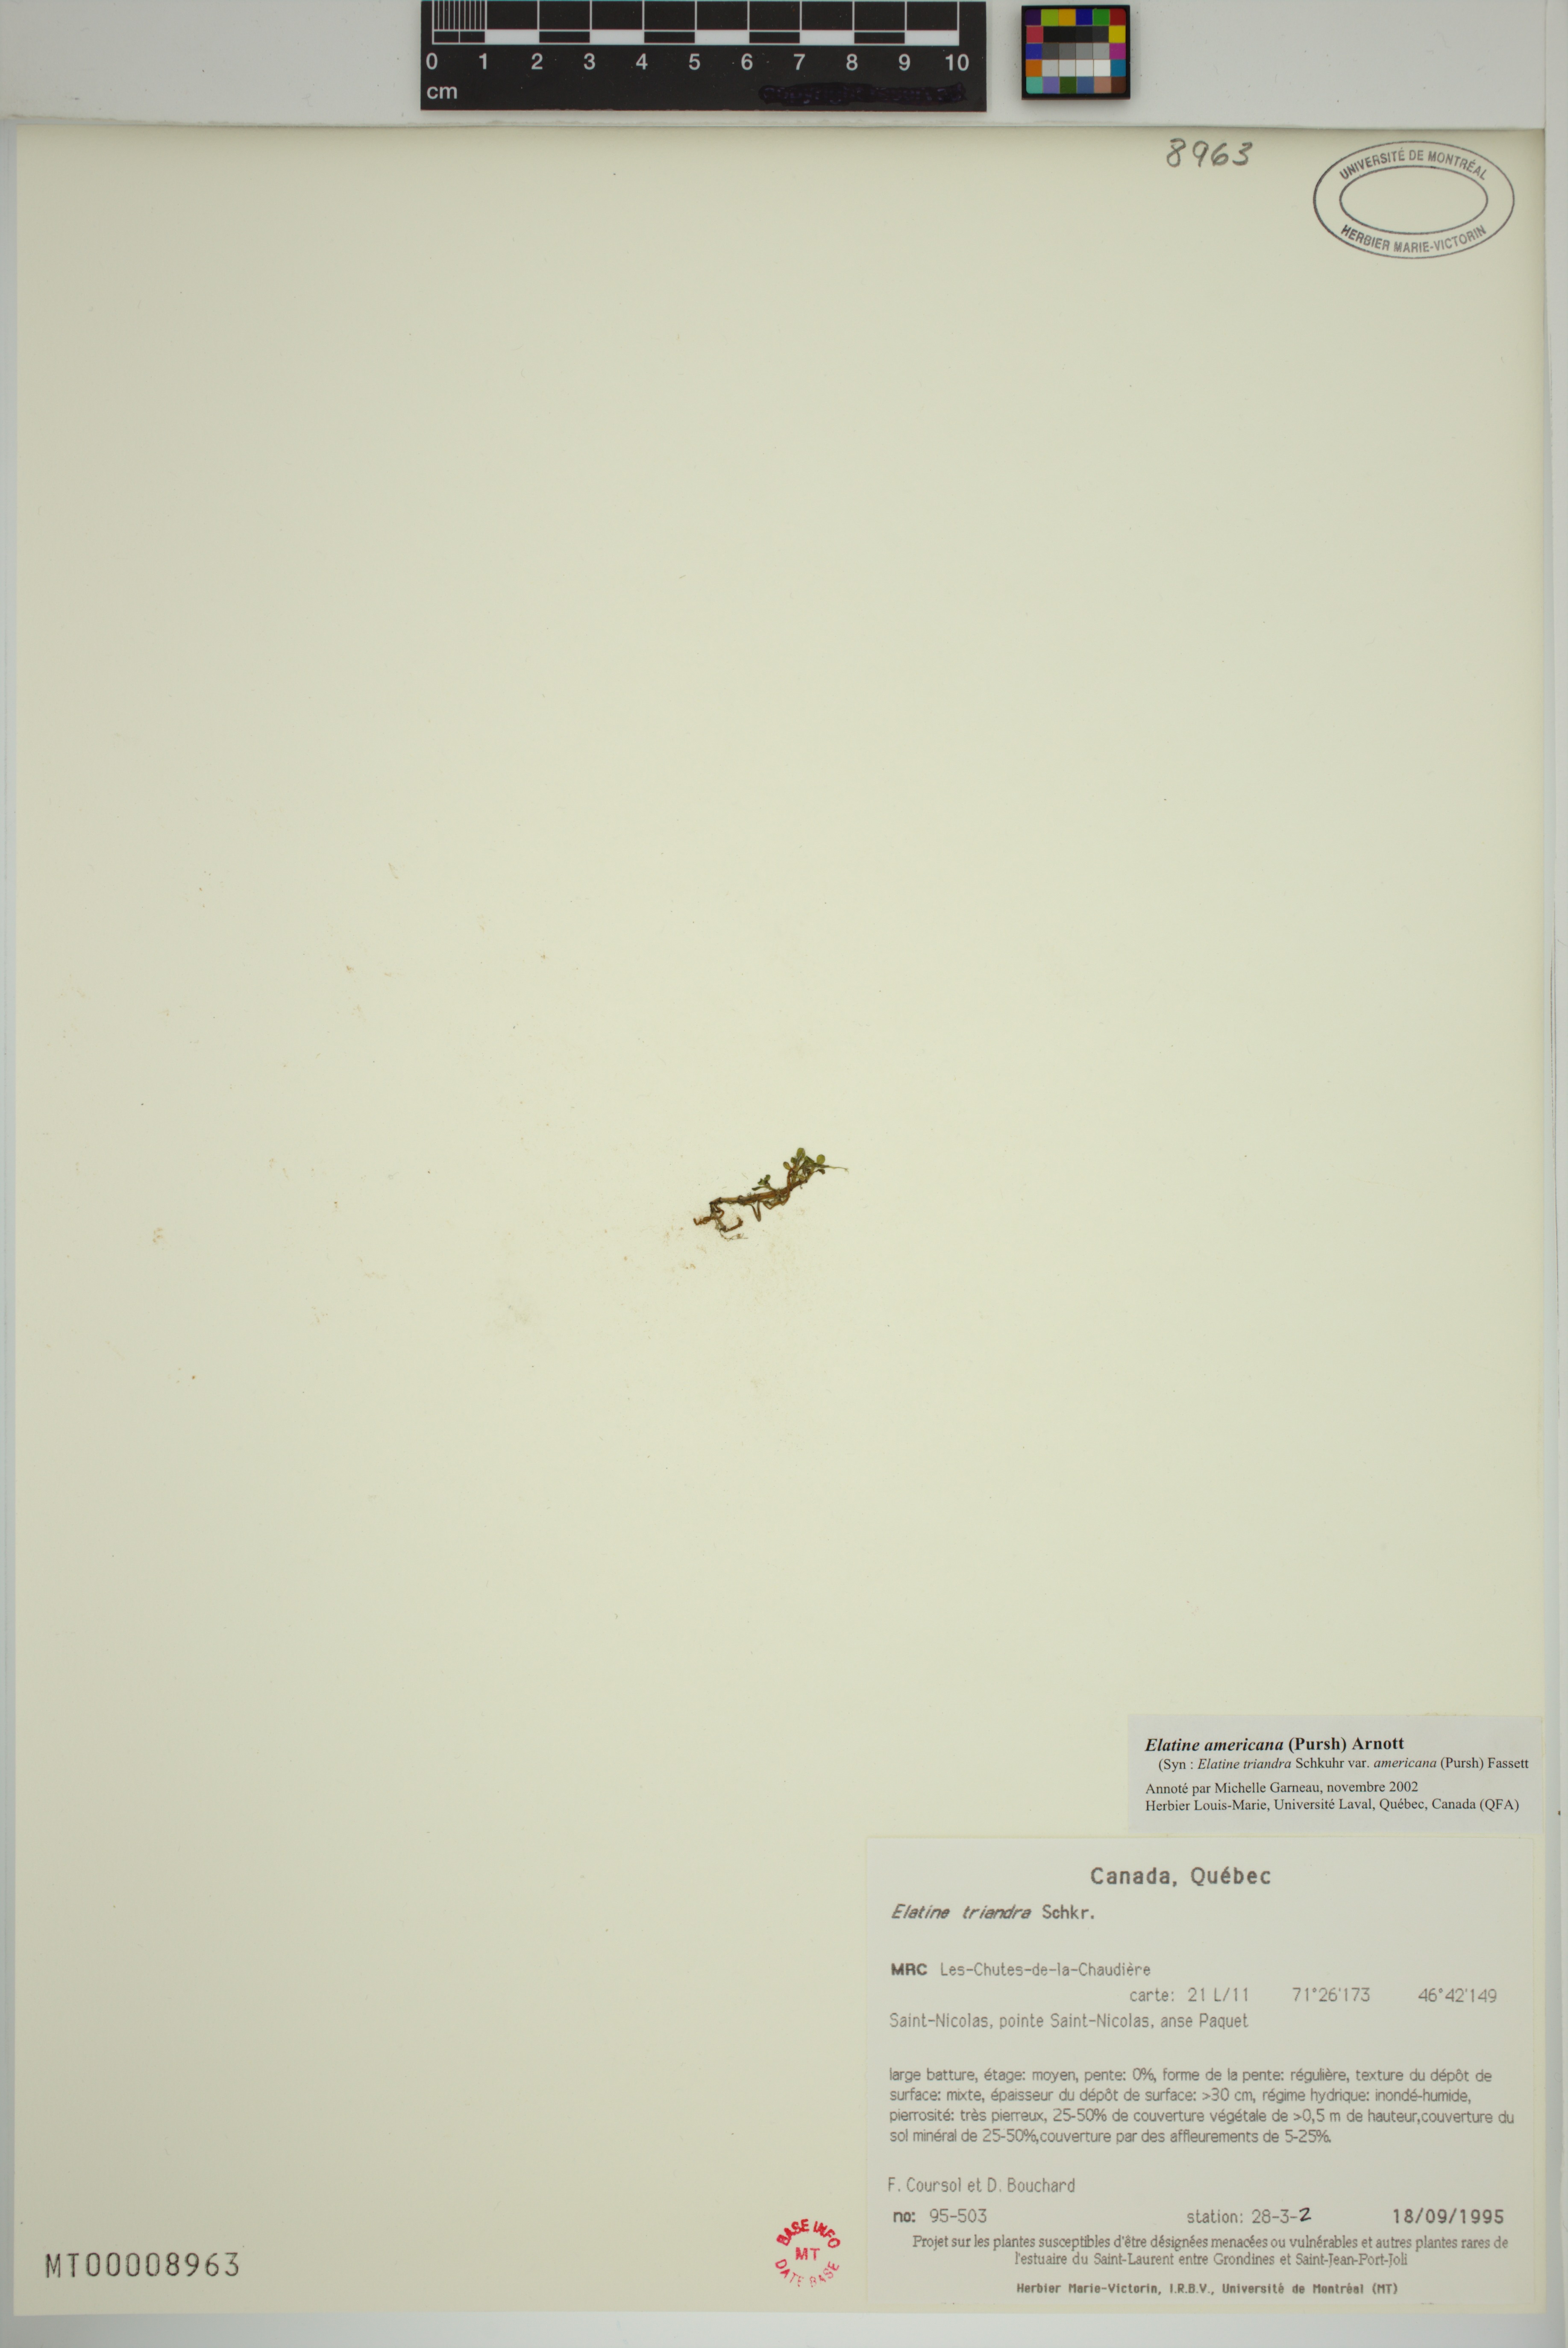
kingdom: Plantae
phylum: Tracheophyta
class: Magnoliopsida
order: Malpighiales
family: Elatinaceae
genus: Elatine
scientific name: Elatine americana
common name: American waterwort
